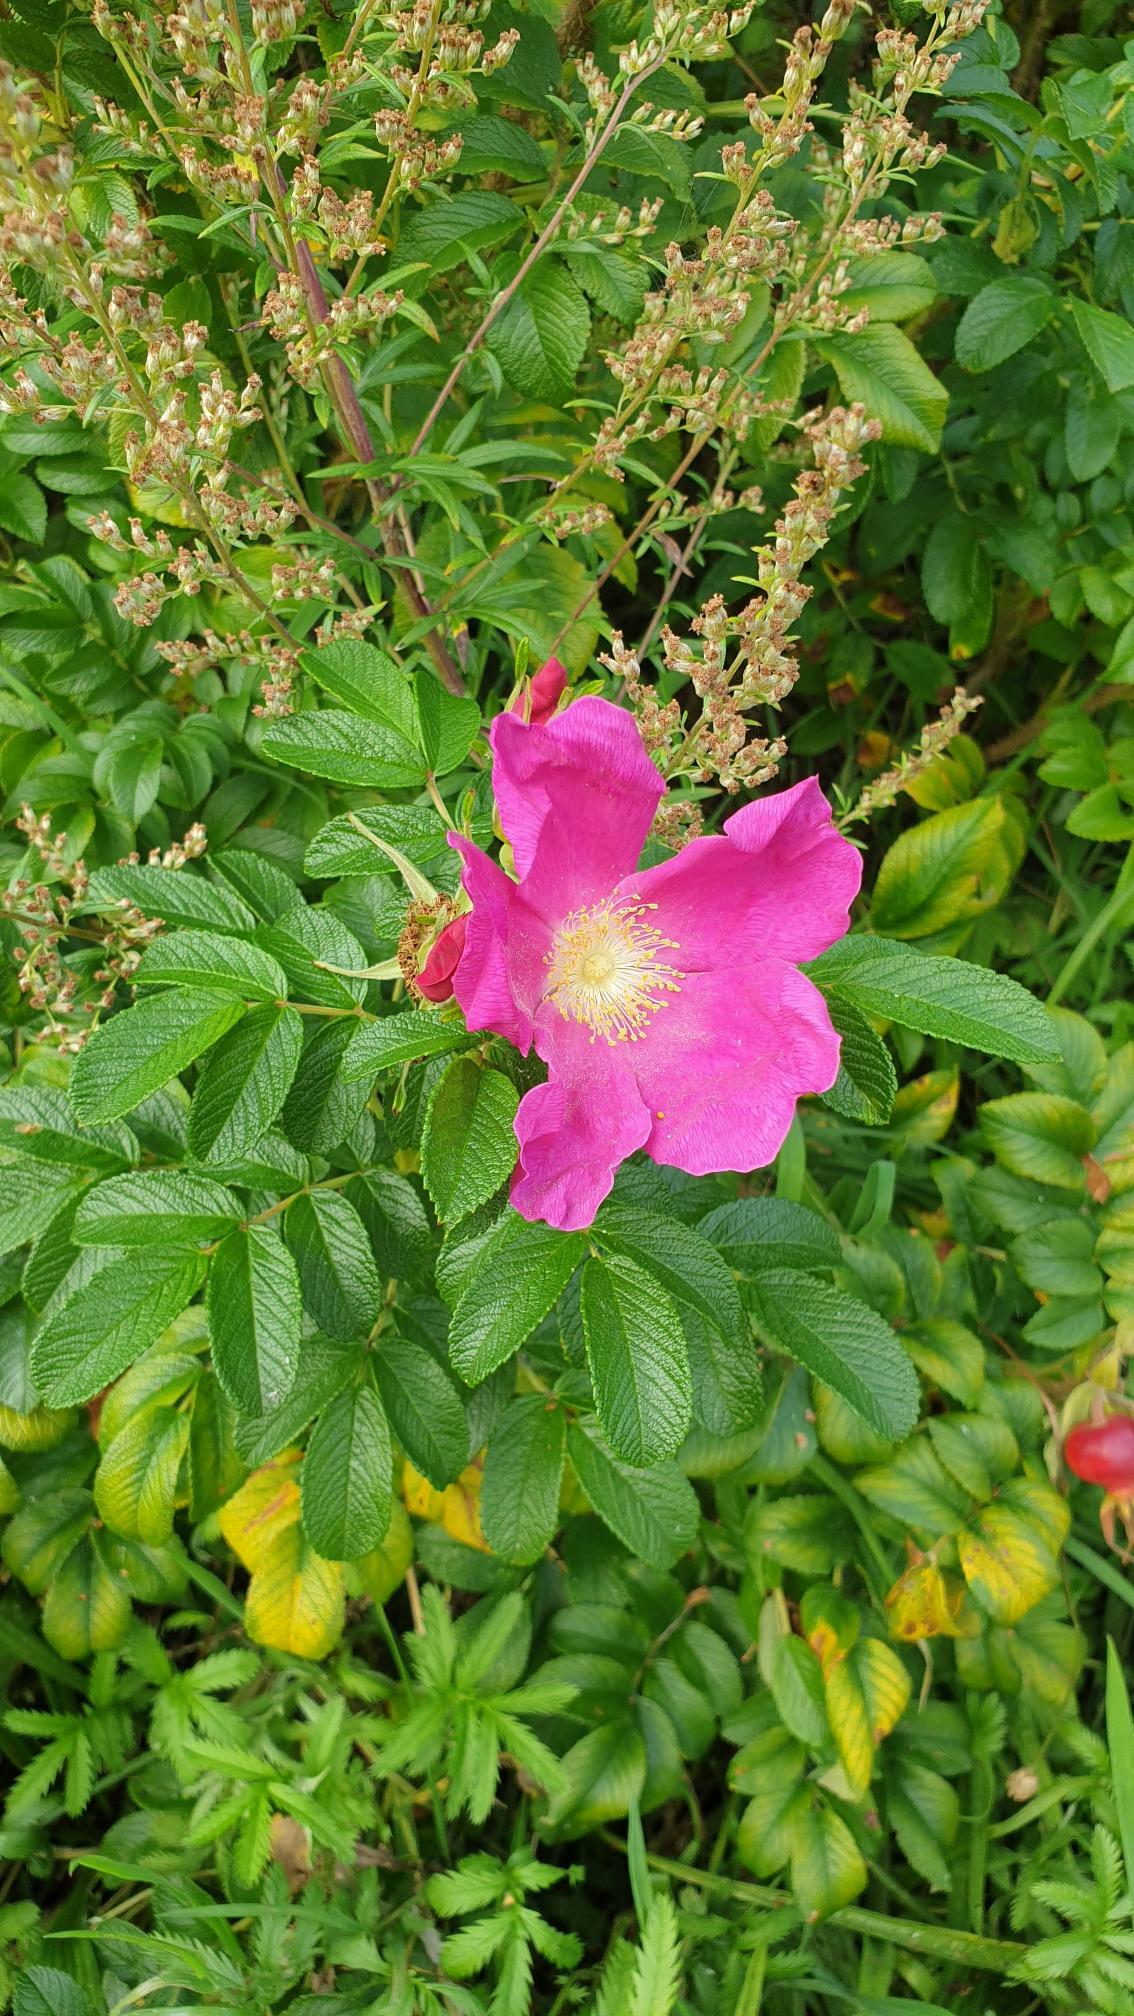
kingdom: Plantae
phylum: Tracheophyta
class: Magnoliopsida
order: Rosales
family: Rosaceae
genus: Rosa
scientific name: Rosa rugosa
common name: Rynket rose
